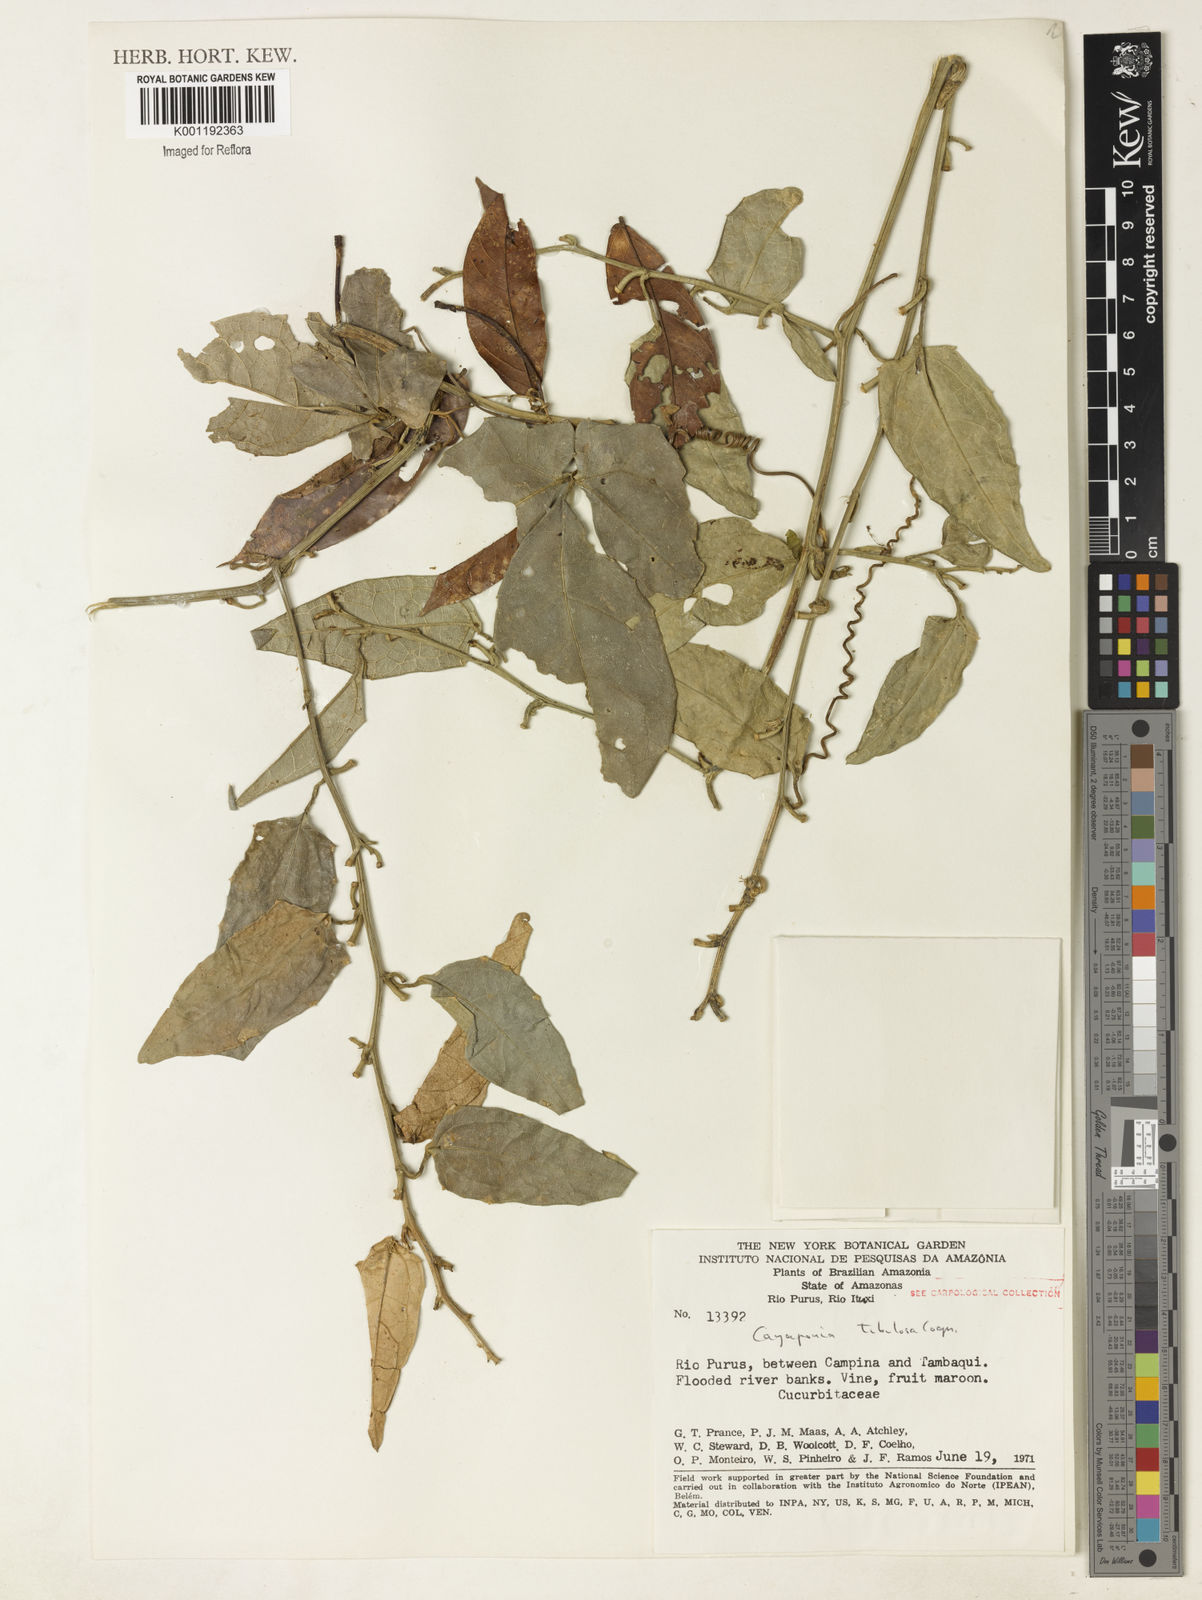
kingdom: Plantae
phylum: Tracheophyta
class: Magnoliopsida
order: Cucurbitales
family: Cucurbitaceae
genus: Cayaponia
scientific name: Cayaponia tubulosa
